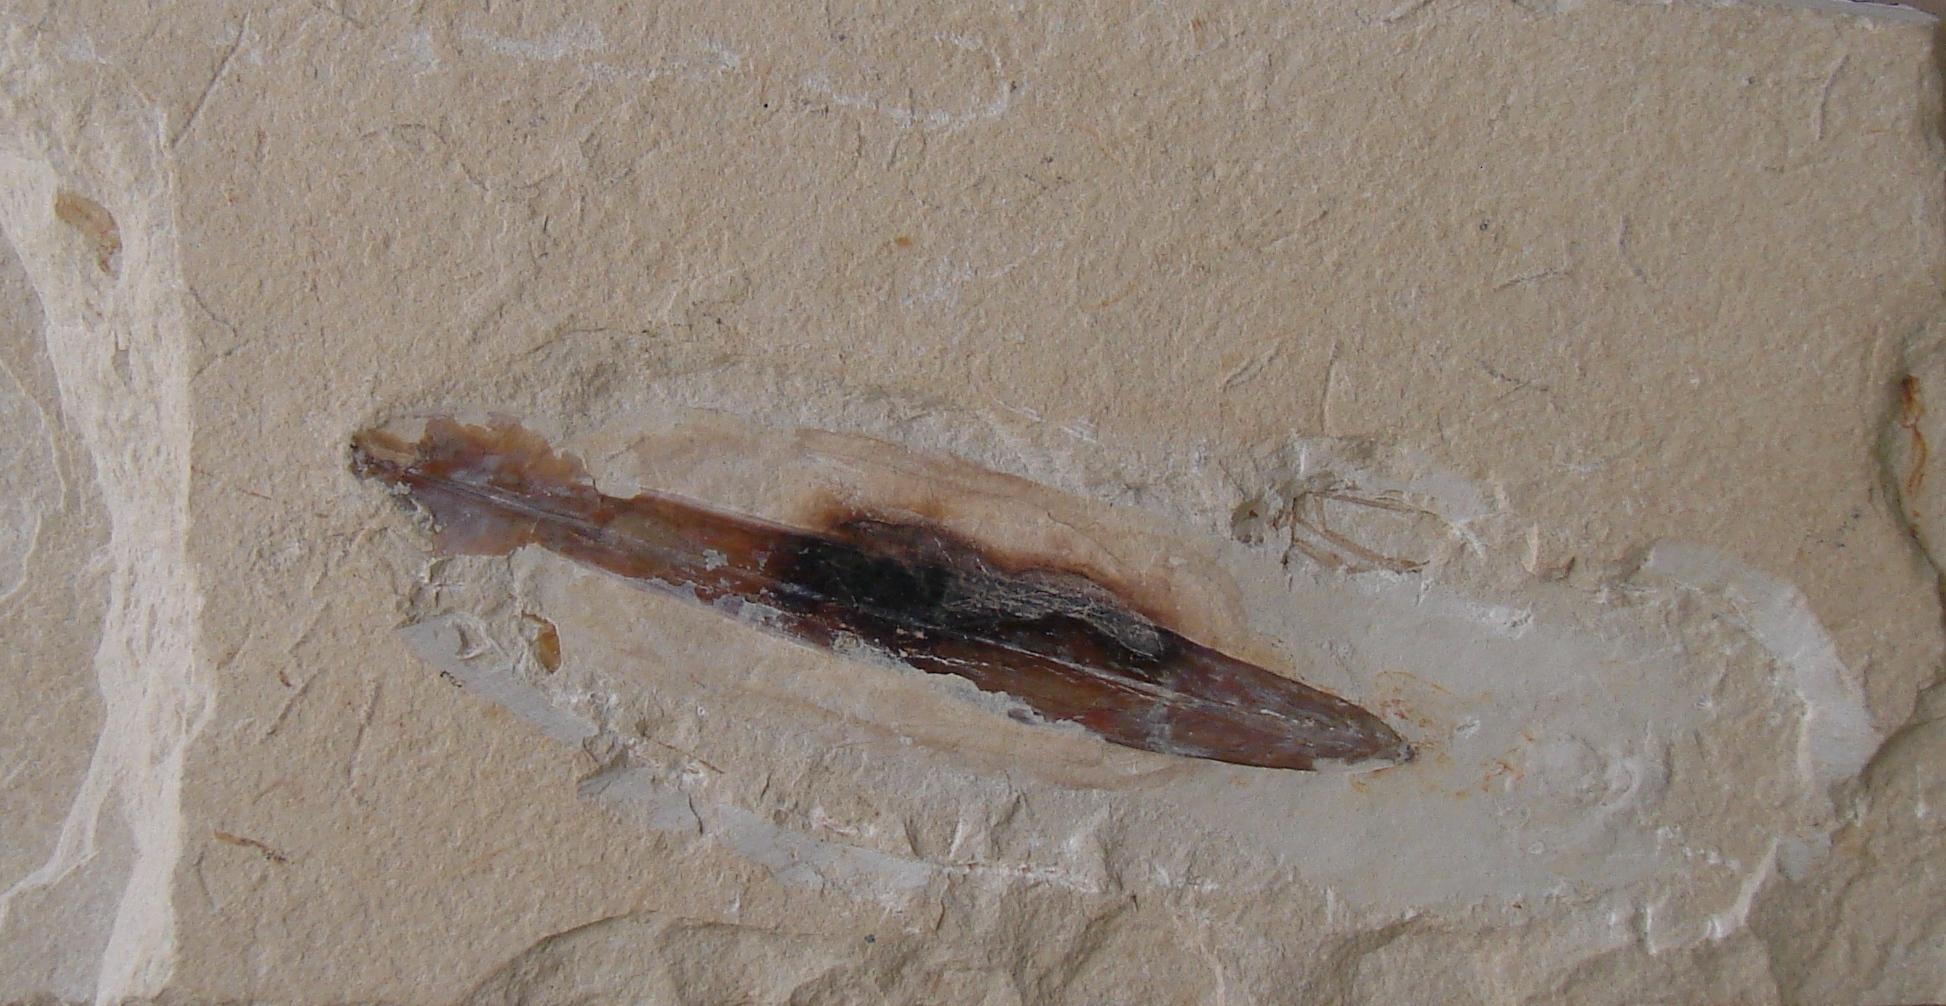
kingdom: Animalia
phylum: Mollusca
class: Cephalopoda
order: Octopoda
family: Palaeololiginidae
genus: Rachiteuthis
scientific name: Rachiteuthis donovani
